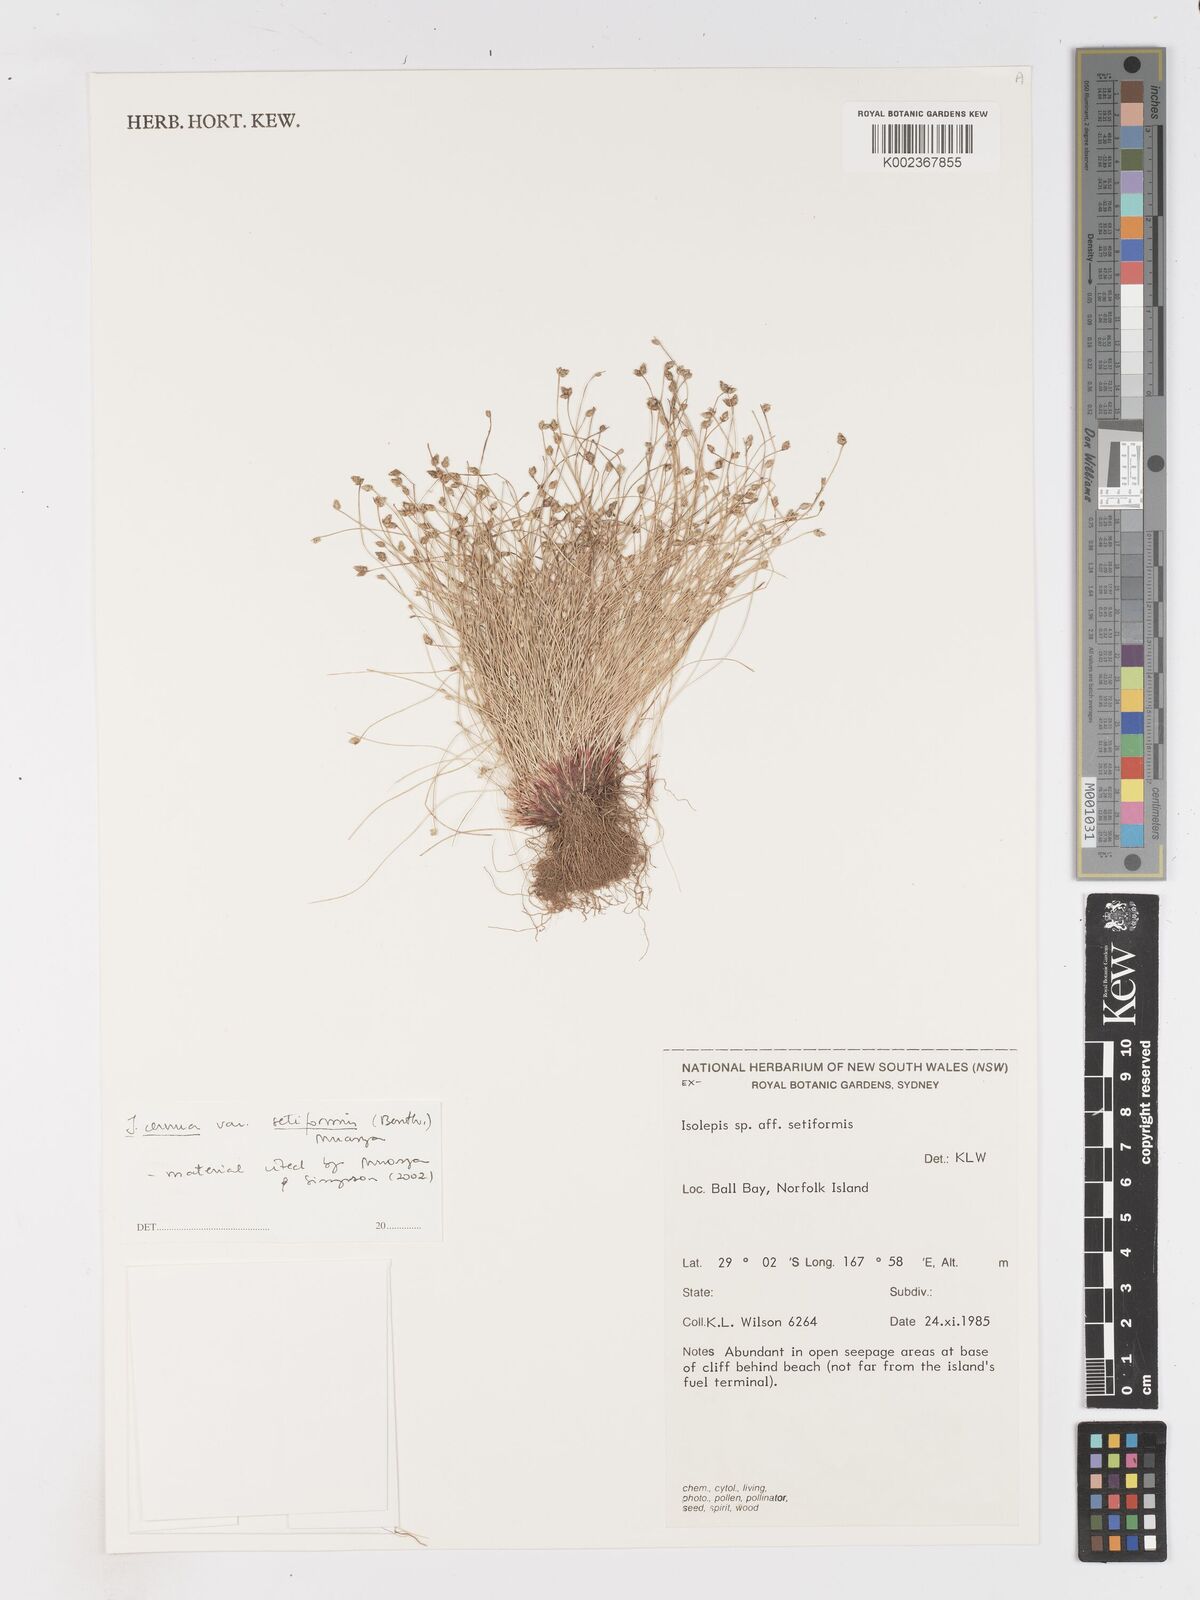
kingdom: Plantae
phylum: Tracheophyta
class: Liliopsida
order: Poales
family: Cyperaceae
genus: Isolepis
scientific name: Isolepis cernua
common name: Slender club-rush
